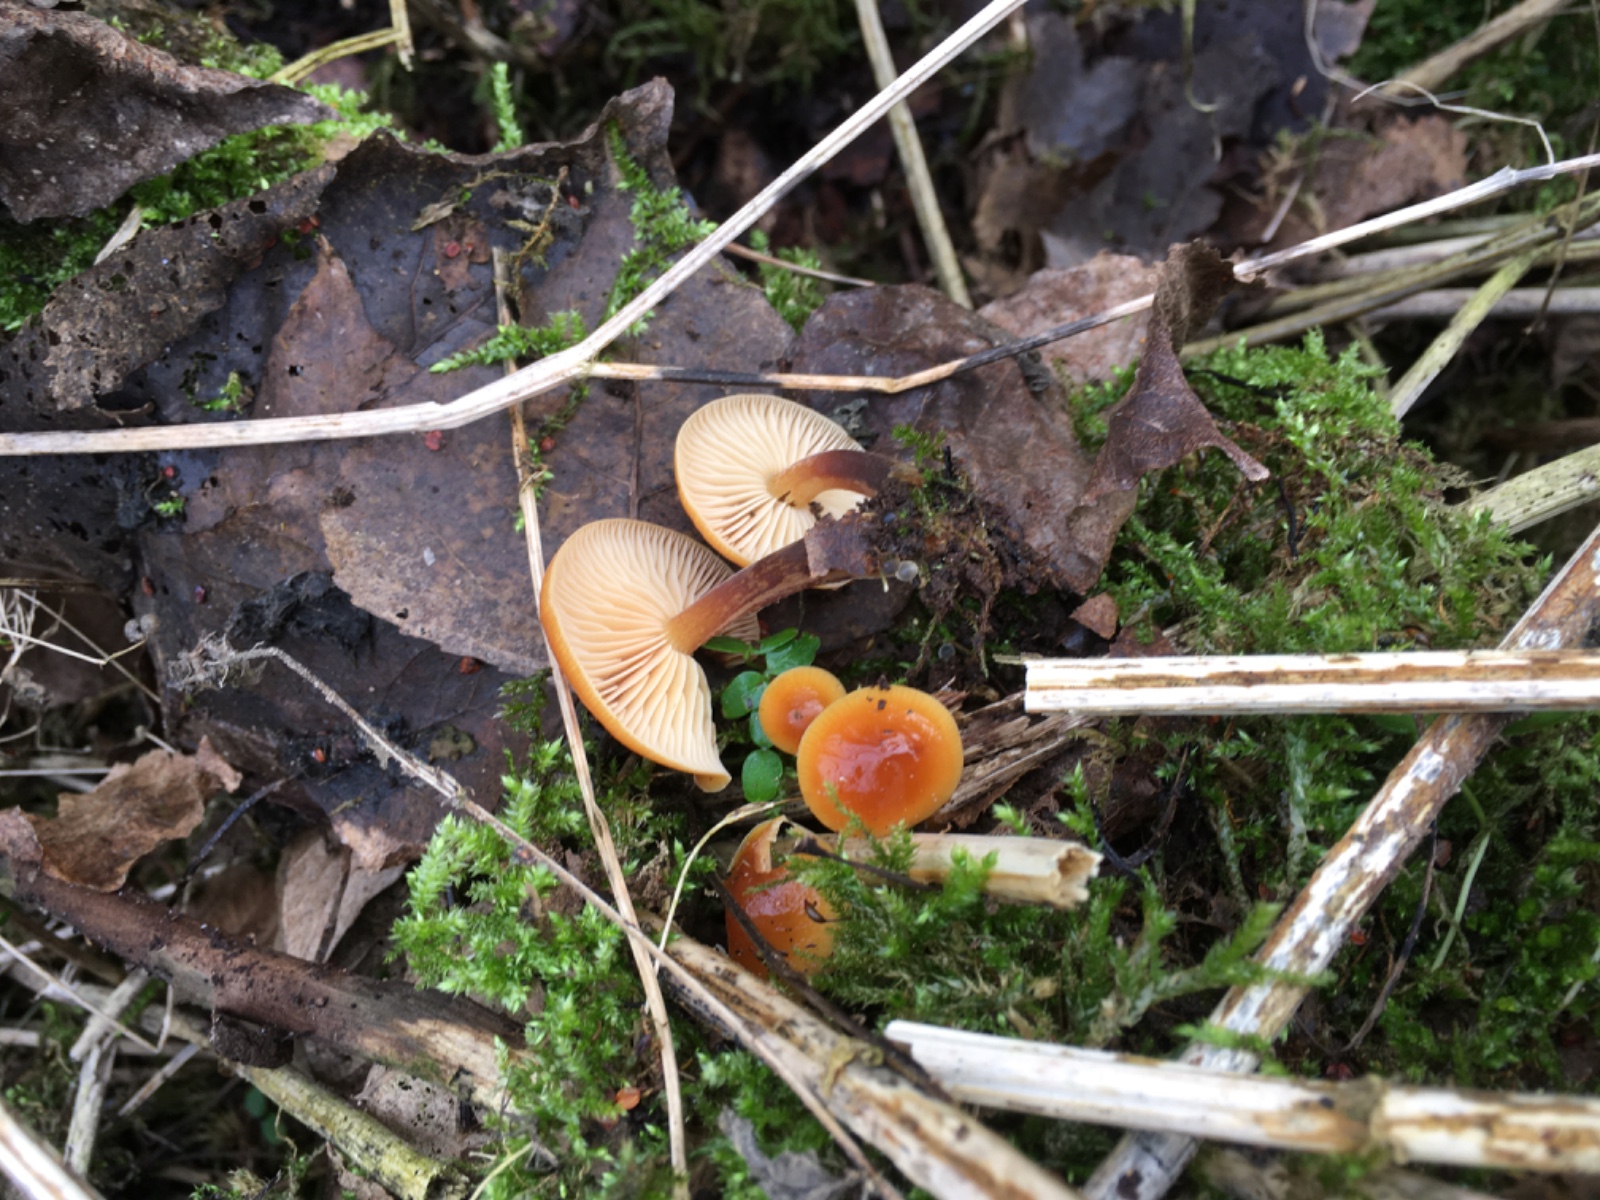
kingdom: Fungi
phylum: Basidiomycota
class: Agaricomycetes
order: Agaricales
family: Physalacriaceae
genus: Flammulina
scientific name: Flammulina
